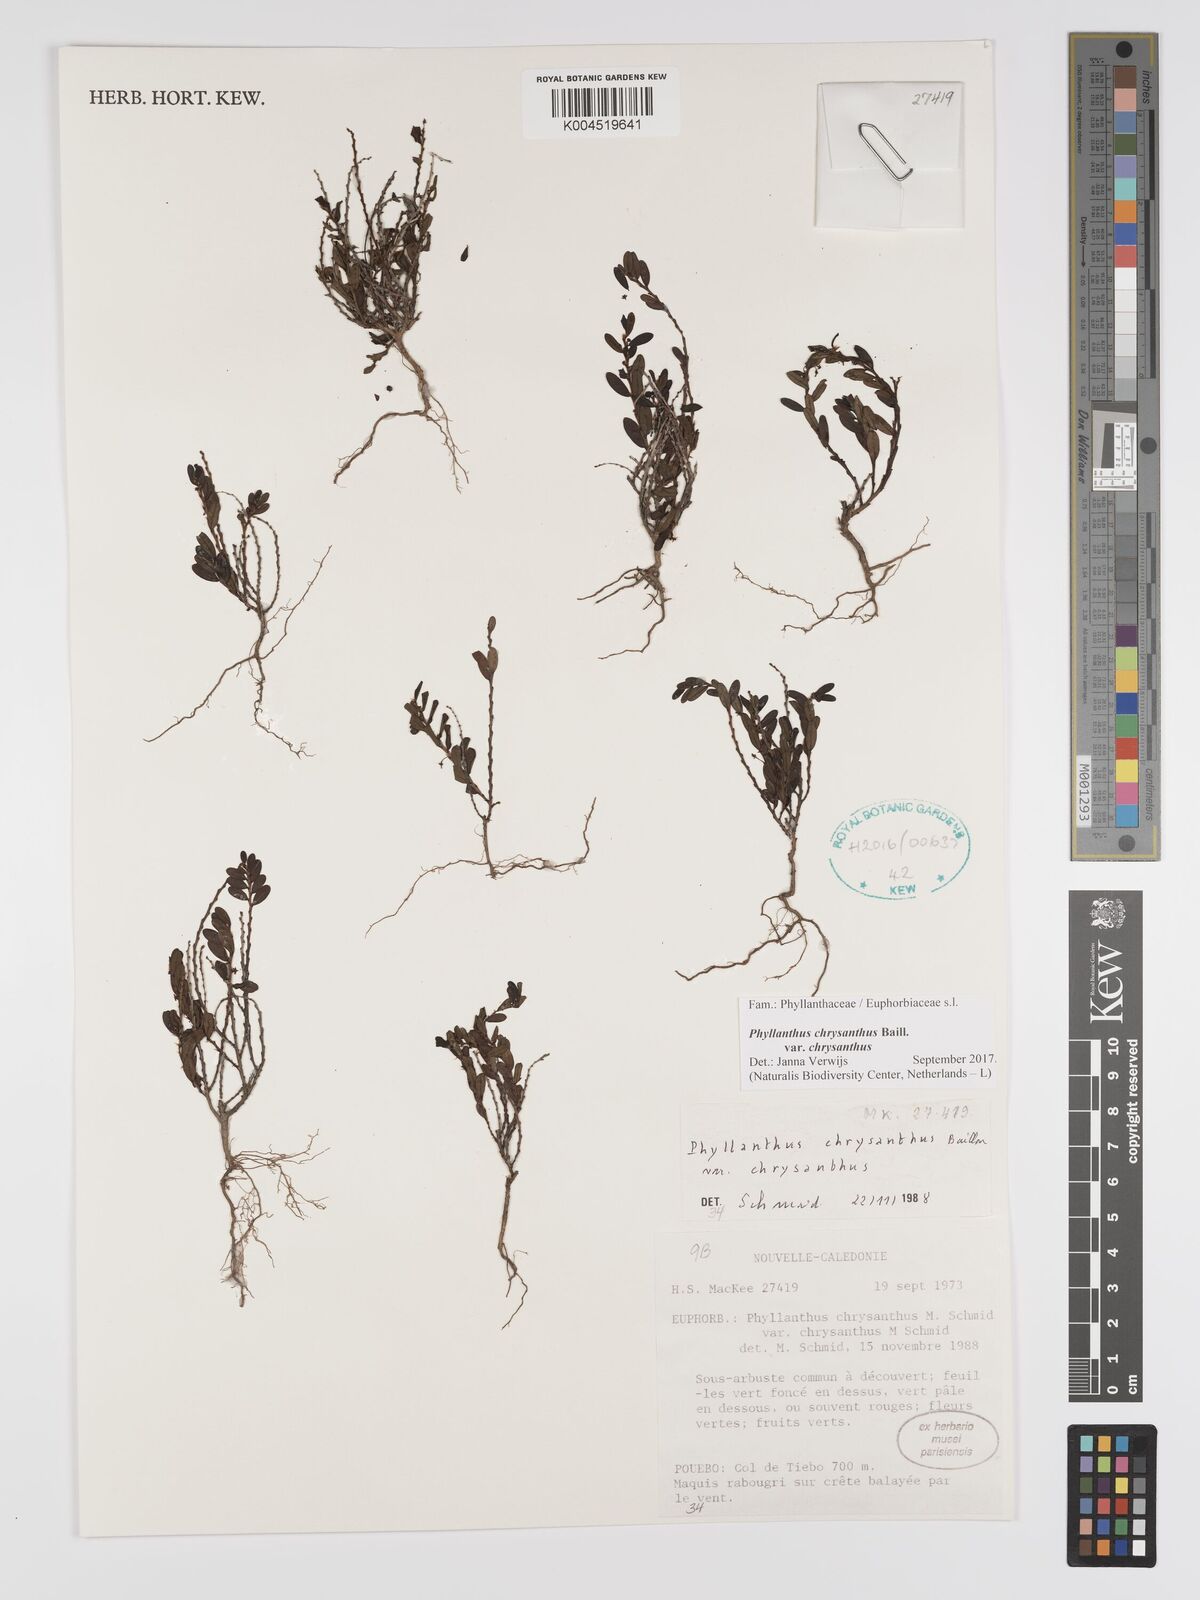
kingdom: Plantae
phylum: Tracheophyta
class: Magnoliopsida
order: Malpighiales
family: Phyllanthaceae
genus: Phyllanthus
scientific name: Phyllanthus chrysanthus
